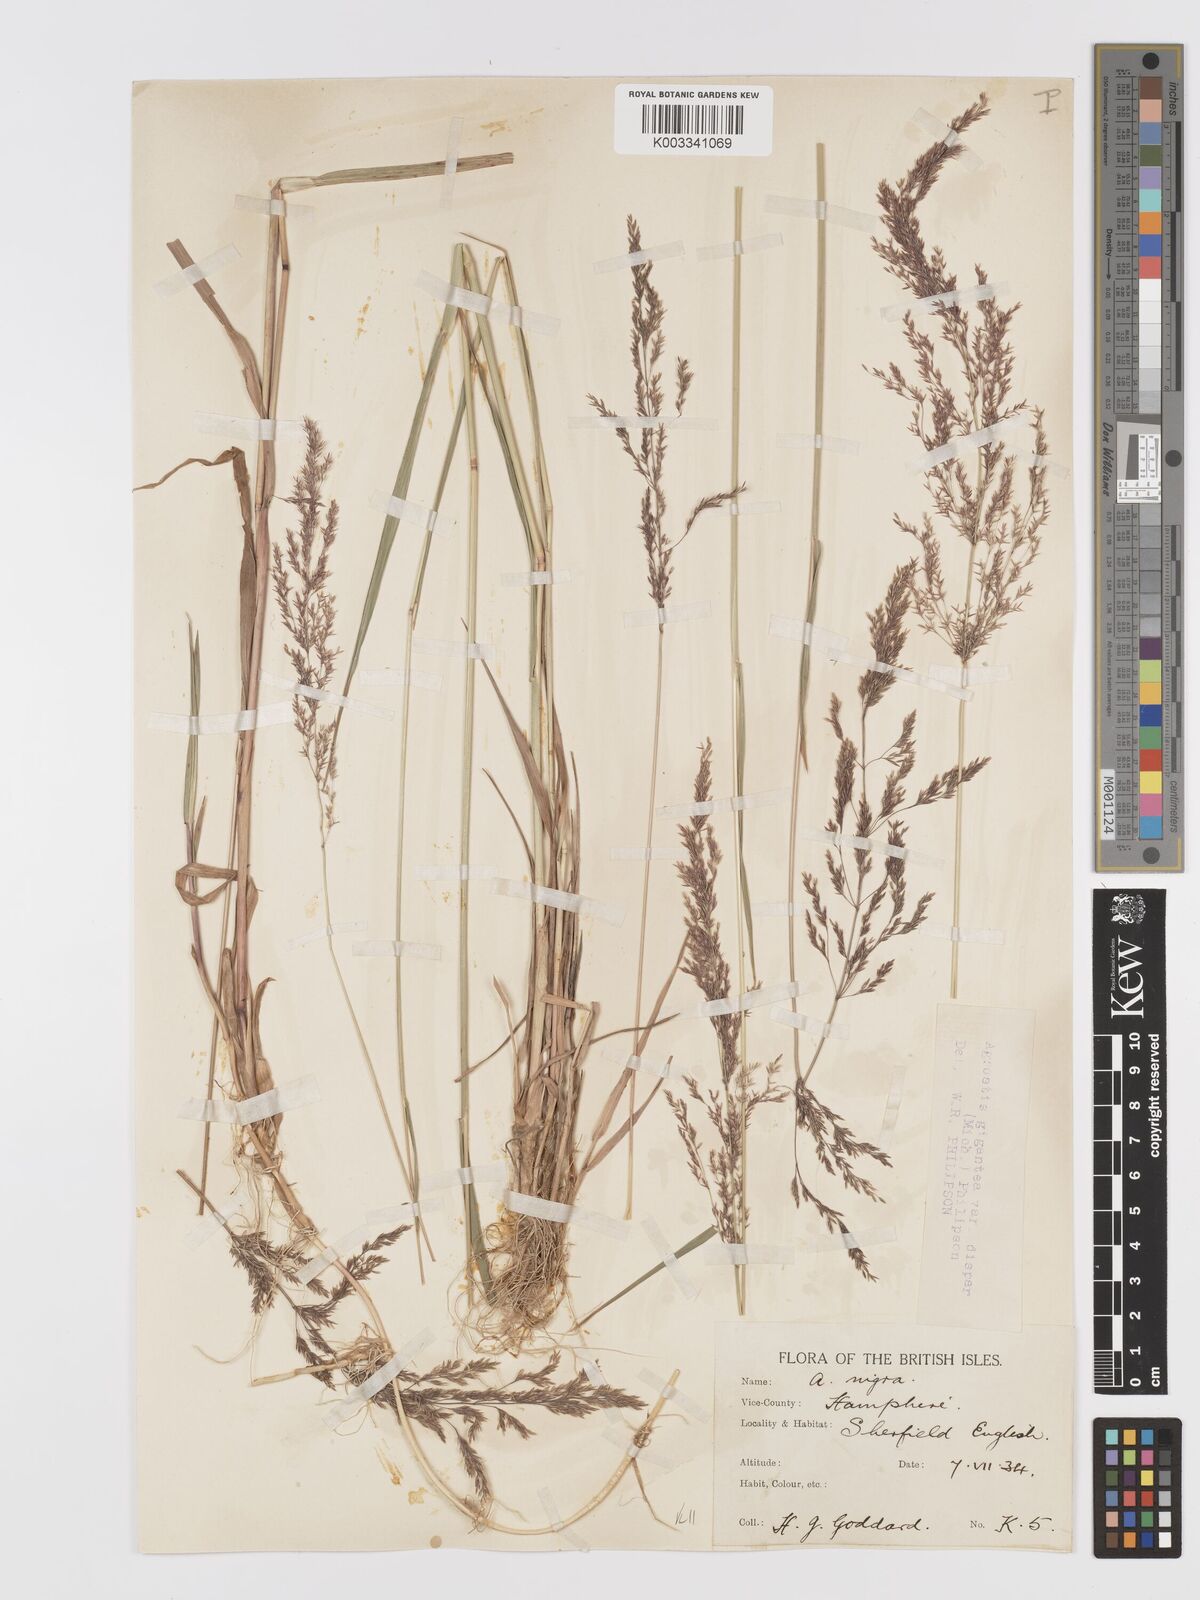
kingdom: Plantae
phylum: Tracheophyta
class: Liliopsida
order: Poales
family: Poaceae
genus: Agrostis
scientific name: Agrostis gigantea
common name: Black bent
